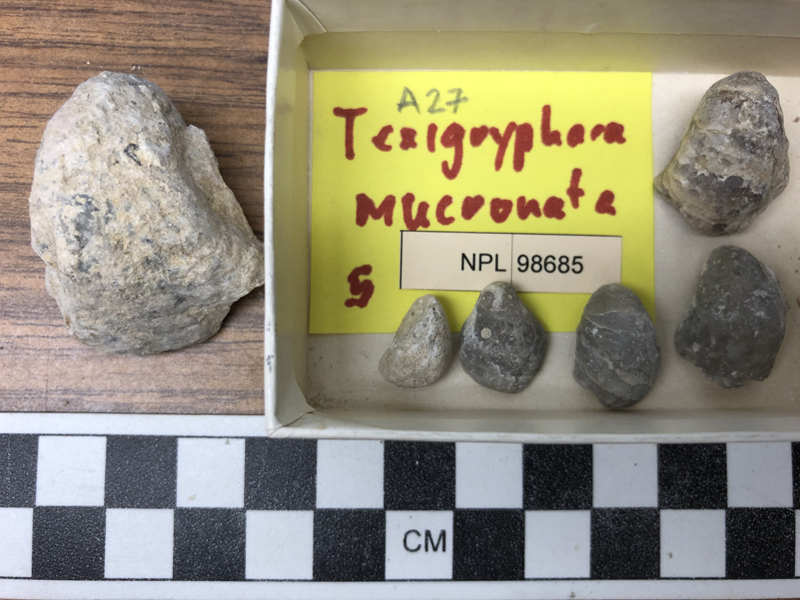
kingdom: Animalia
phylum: Mollusca
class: Bivalvia
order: Ostreida
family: Gryphaeidae
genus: Texigryphaea
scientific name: Texigryphaea
